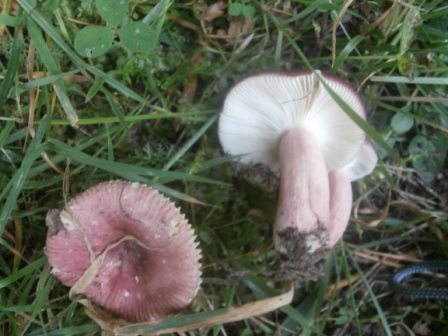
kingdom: Fungi
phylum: Basidiomycota
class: Agaricomycetes
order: Russulales
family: Russulaceae
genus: Russula
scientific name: Russula queletii
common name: Quélets skørhat
